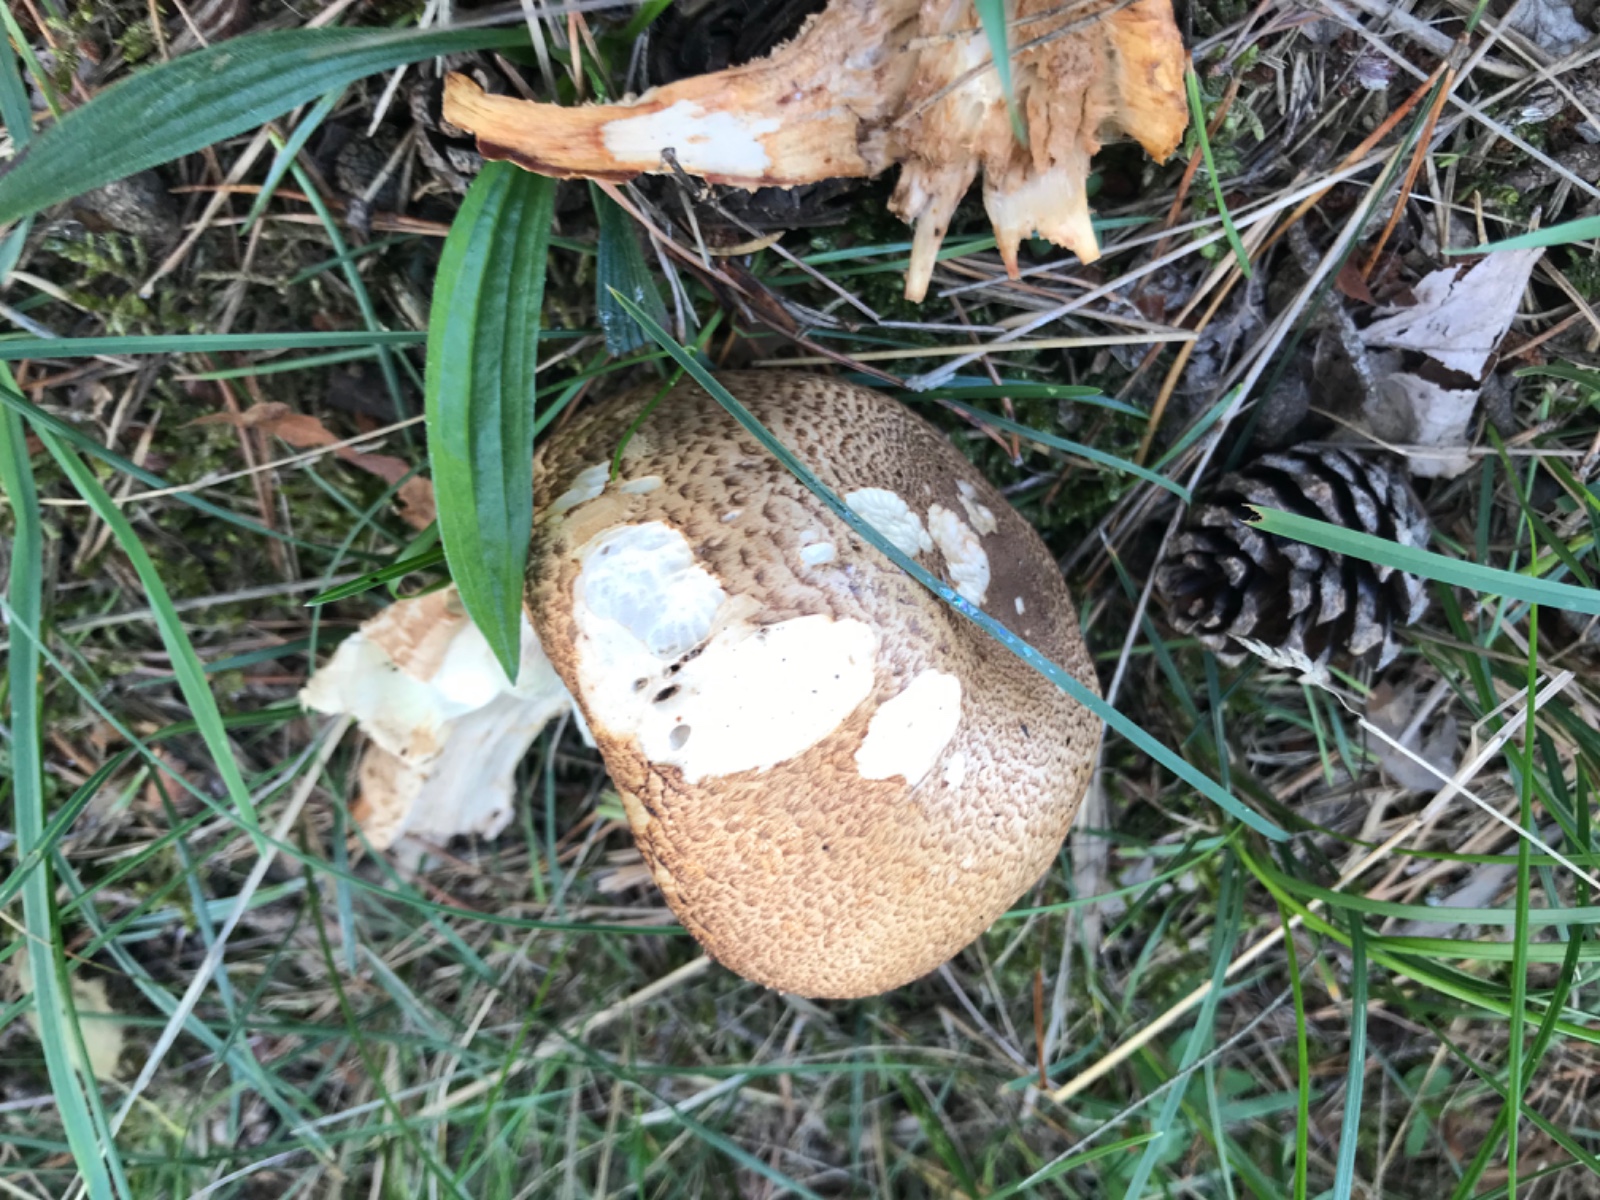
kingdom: Fungi
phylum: Basidiomycota
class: Agaricomycetes
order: Agaricales
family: Agaricaceae
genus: Agaricus
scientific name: Agaricus augustus
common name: prægtig champignon
